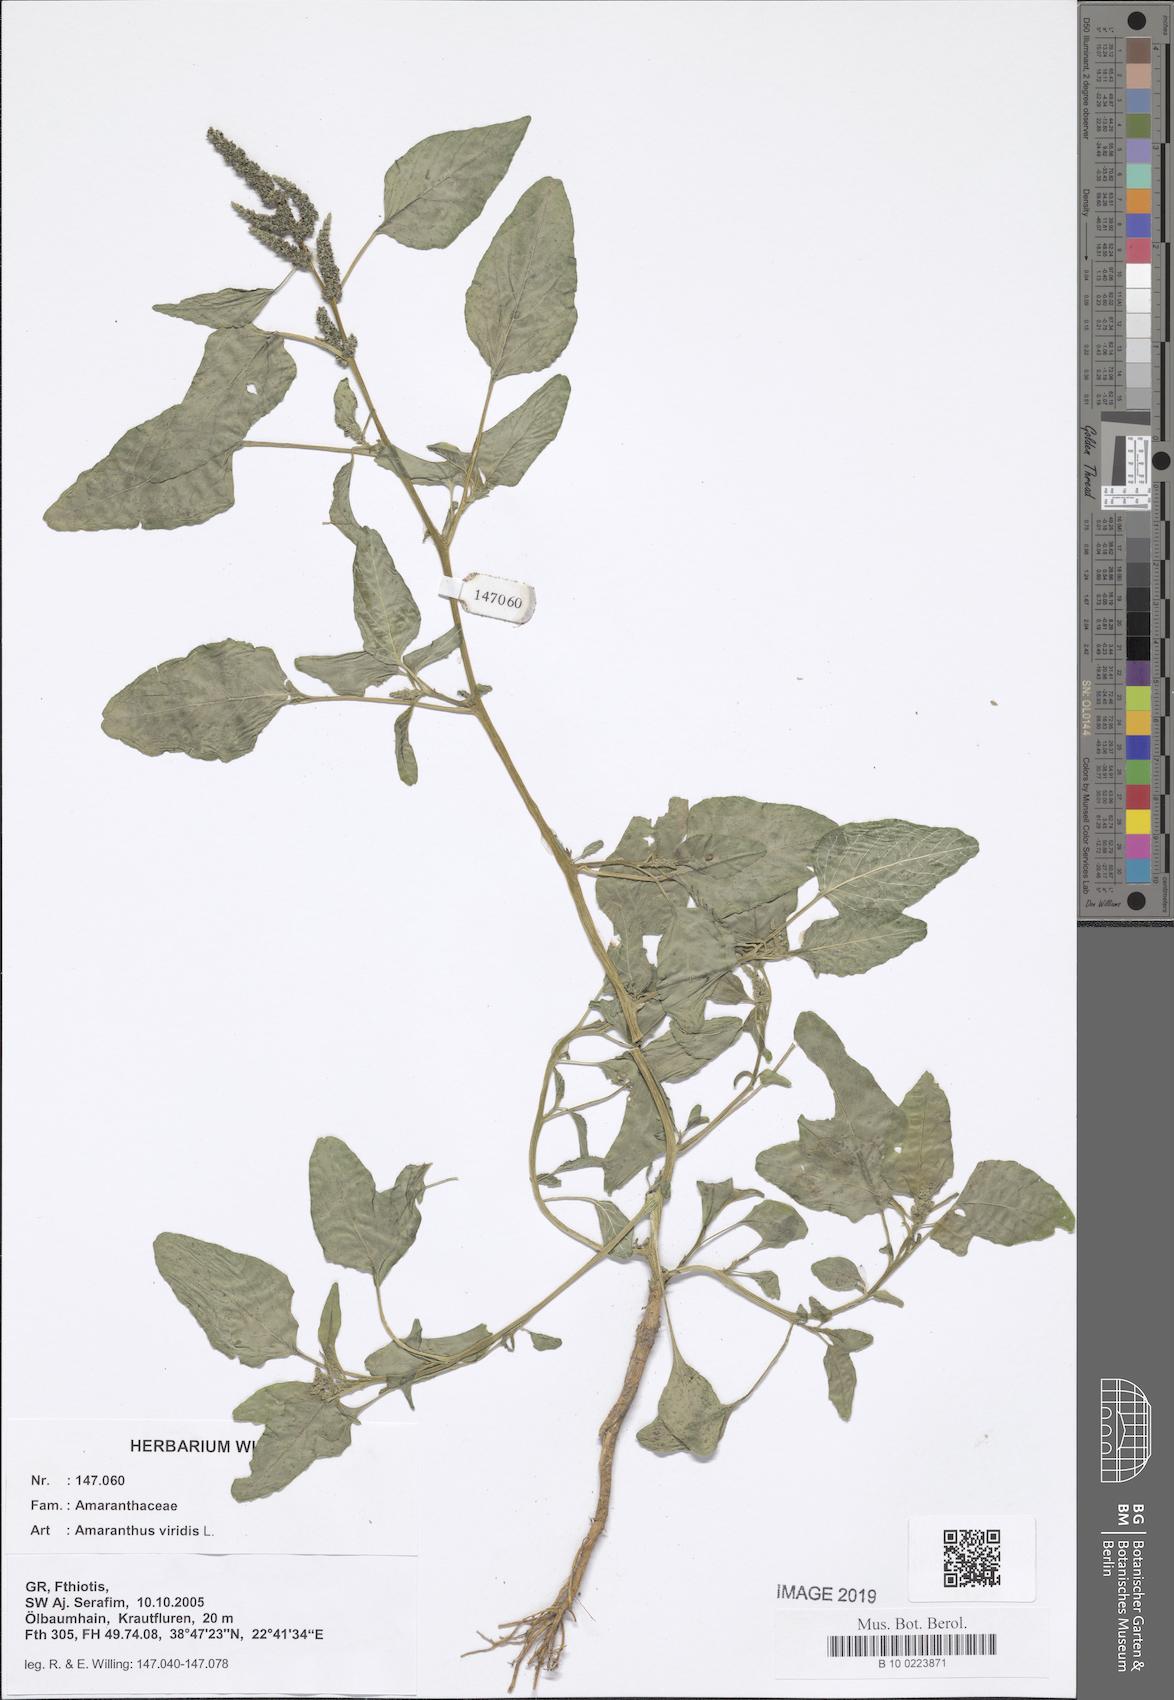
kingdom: Plantae
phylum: Tracheophyta
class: Magnoliopsida
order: Caryophyllales
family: Amaranthaceae
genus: Amaranthus
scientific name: Amaranthus viridis
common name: Slender amaranth
